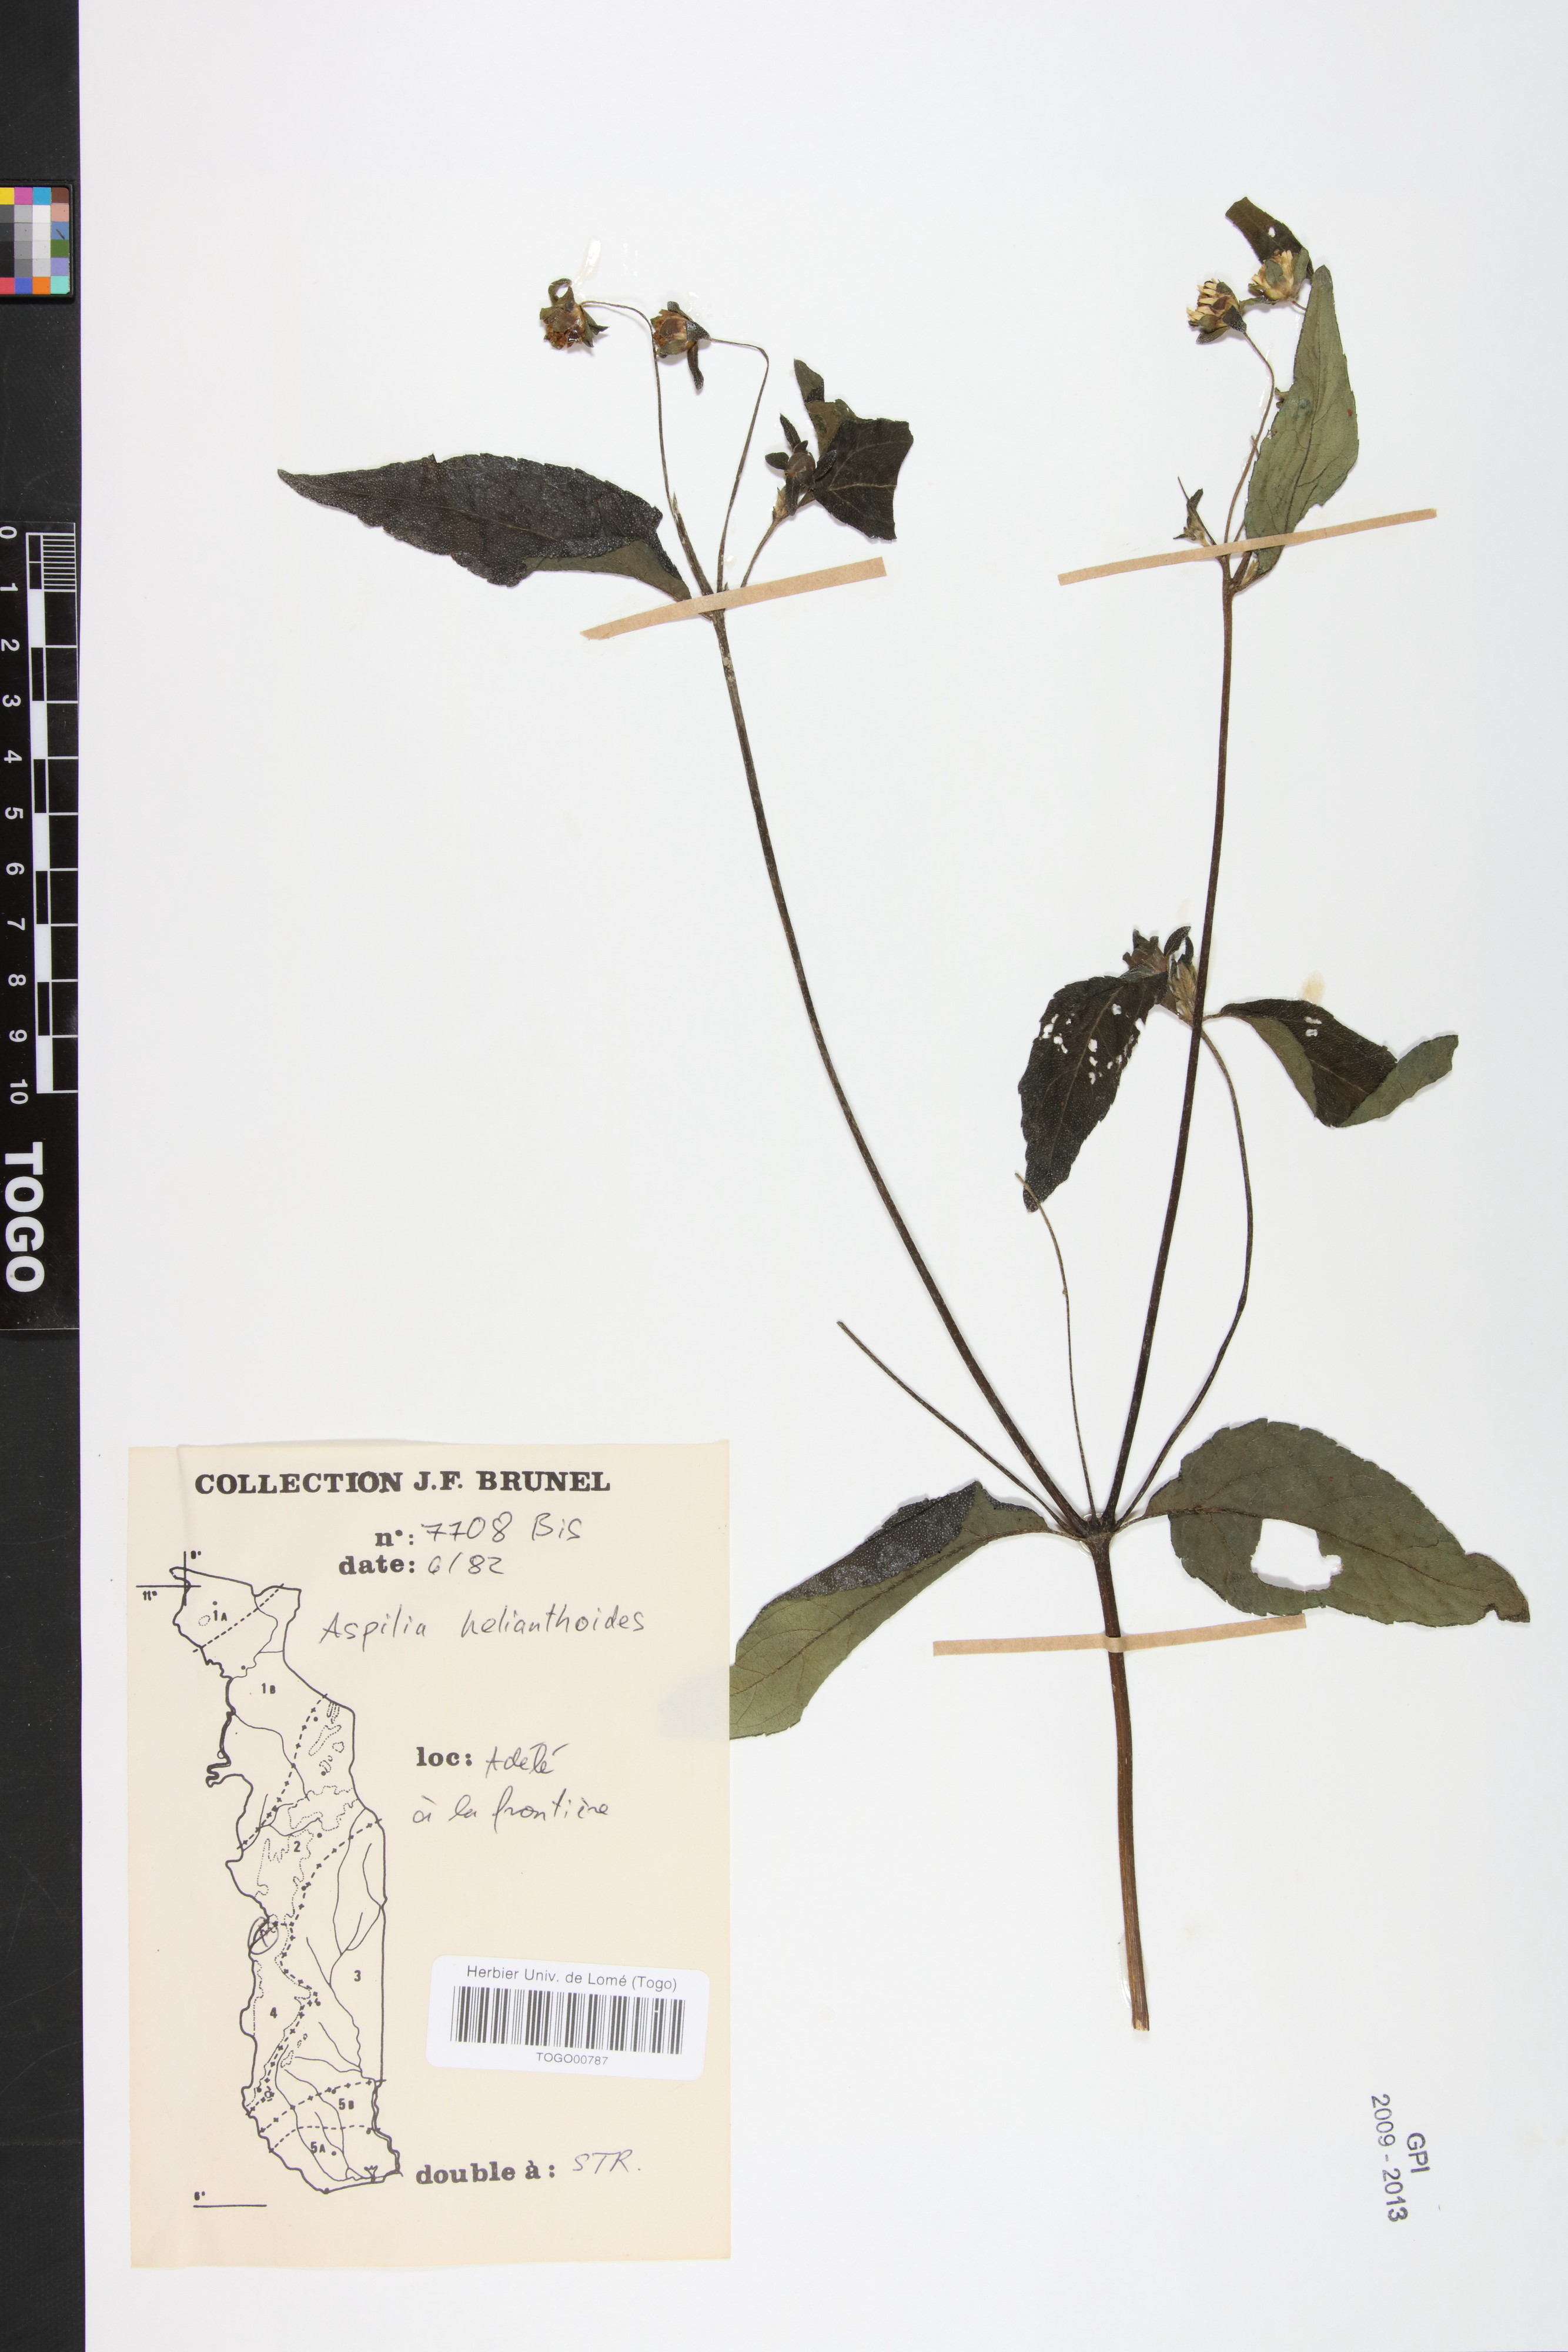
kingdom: Plantae
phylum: Tracheophyta
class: Magnoliopsida
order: Asterales
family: Asteraceae
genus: Aspilia
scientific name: Aspilia helianthoides
